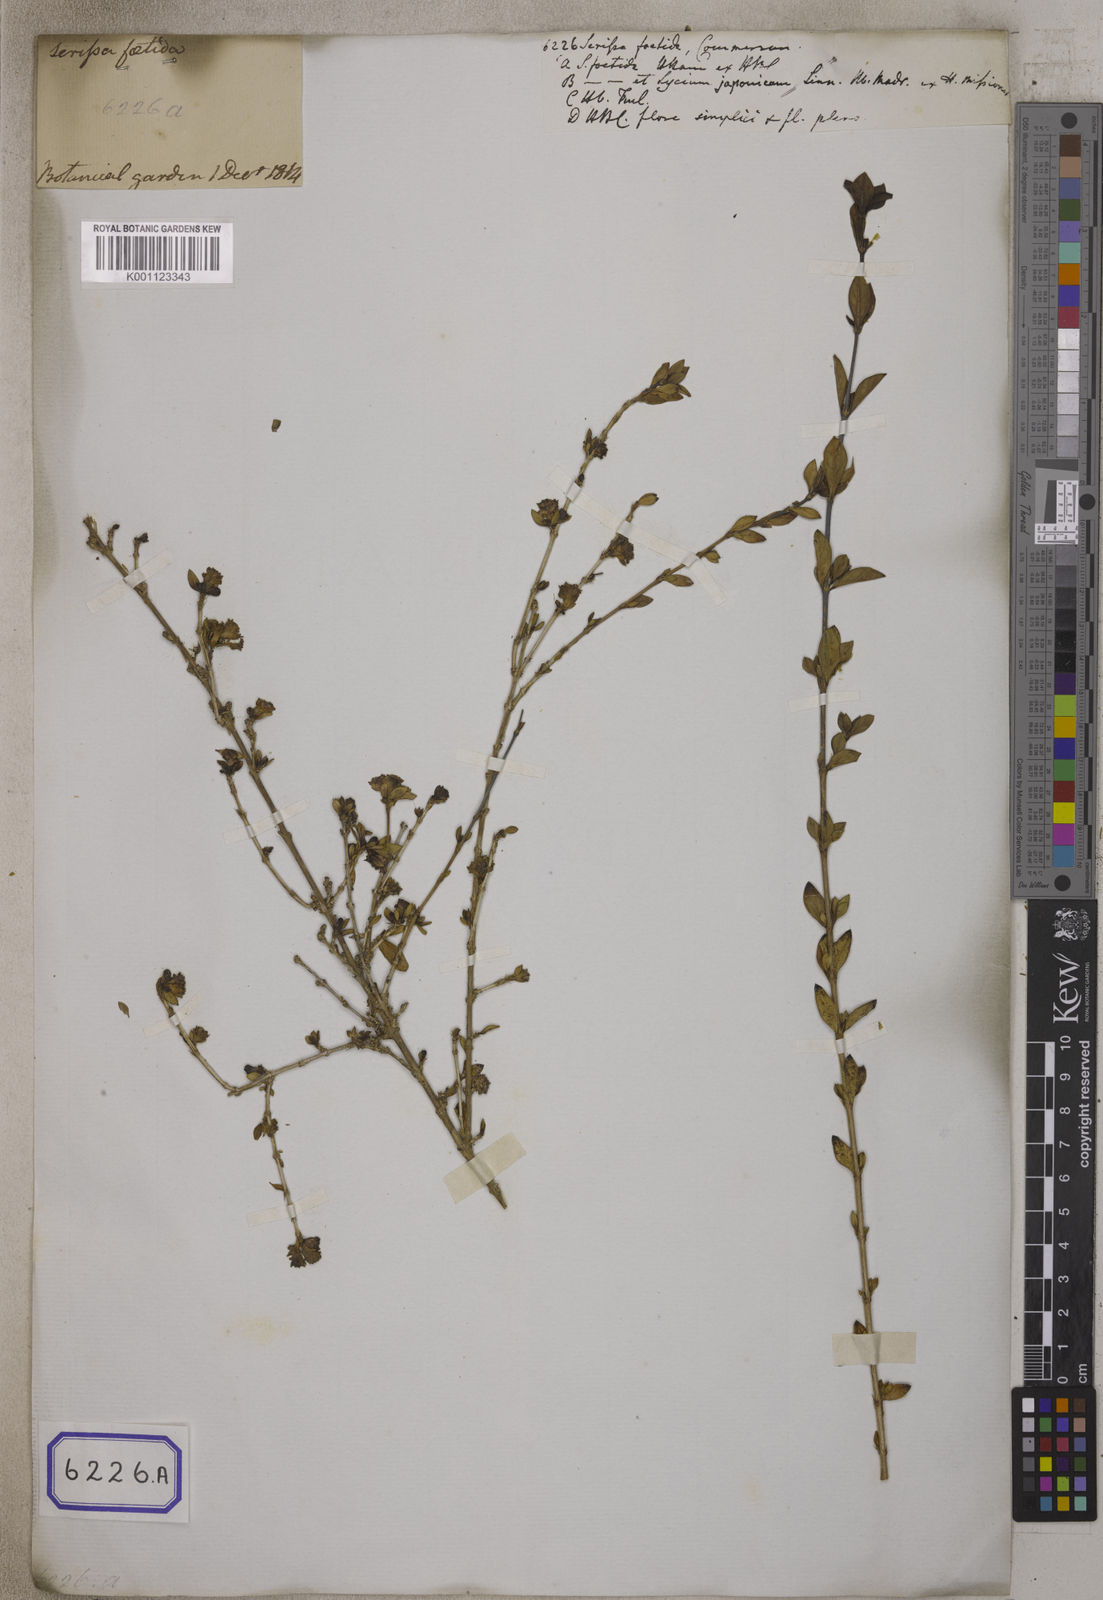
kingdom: Plantae
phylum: Tracheophyta
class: Magnoliopsida
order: Gentianales
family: Rubiaceae
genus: Buchozia
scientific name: Buchozia
